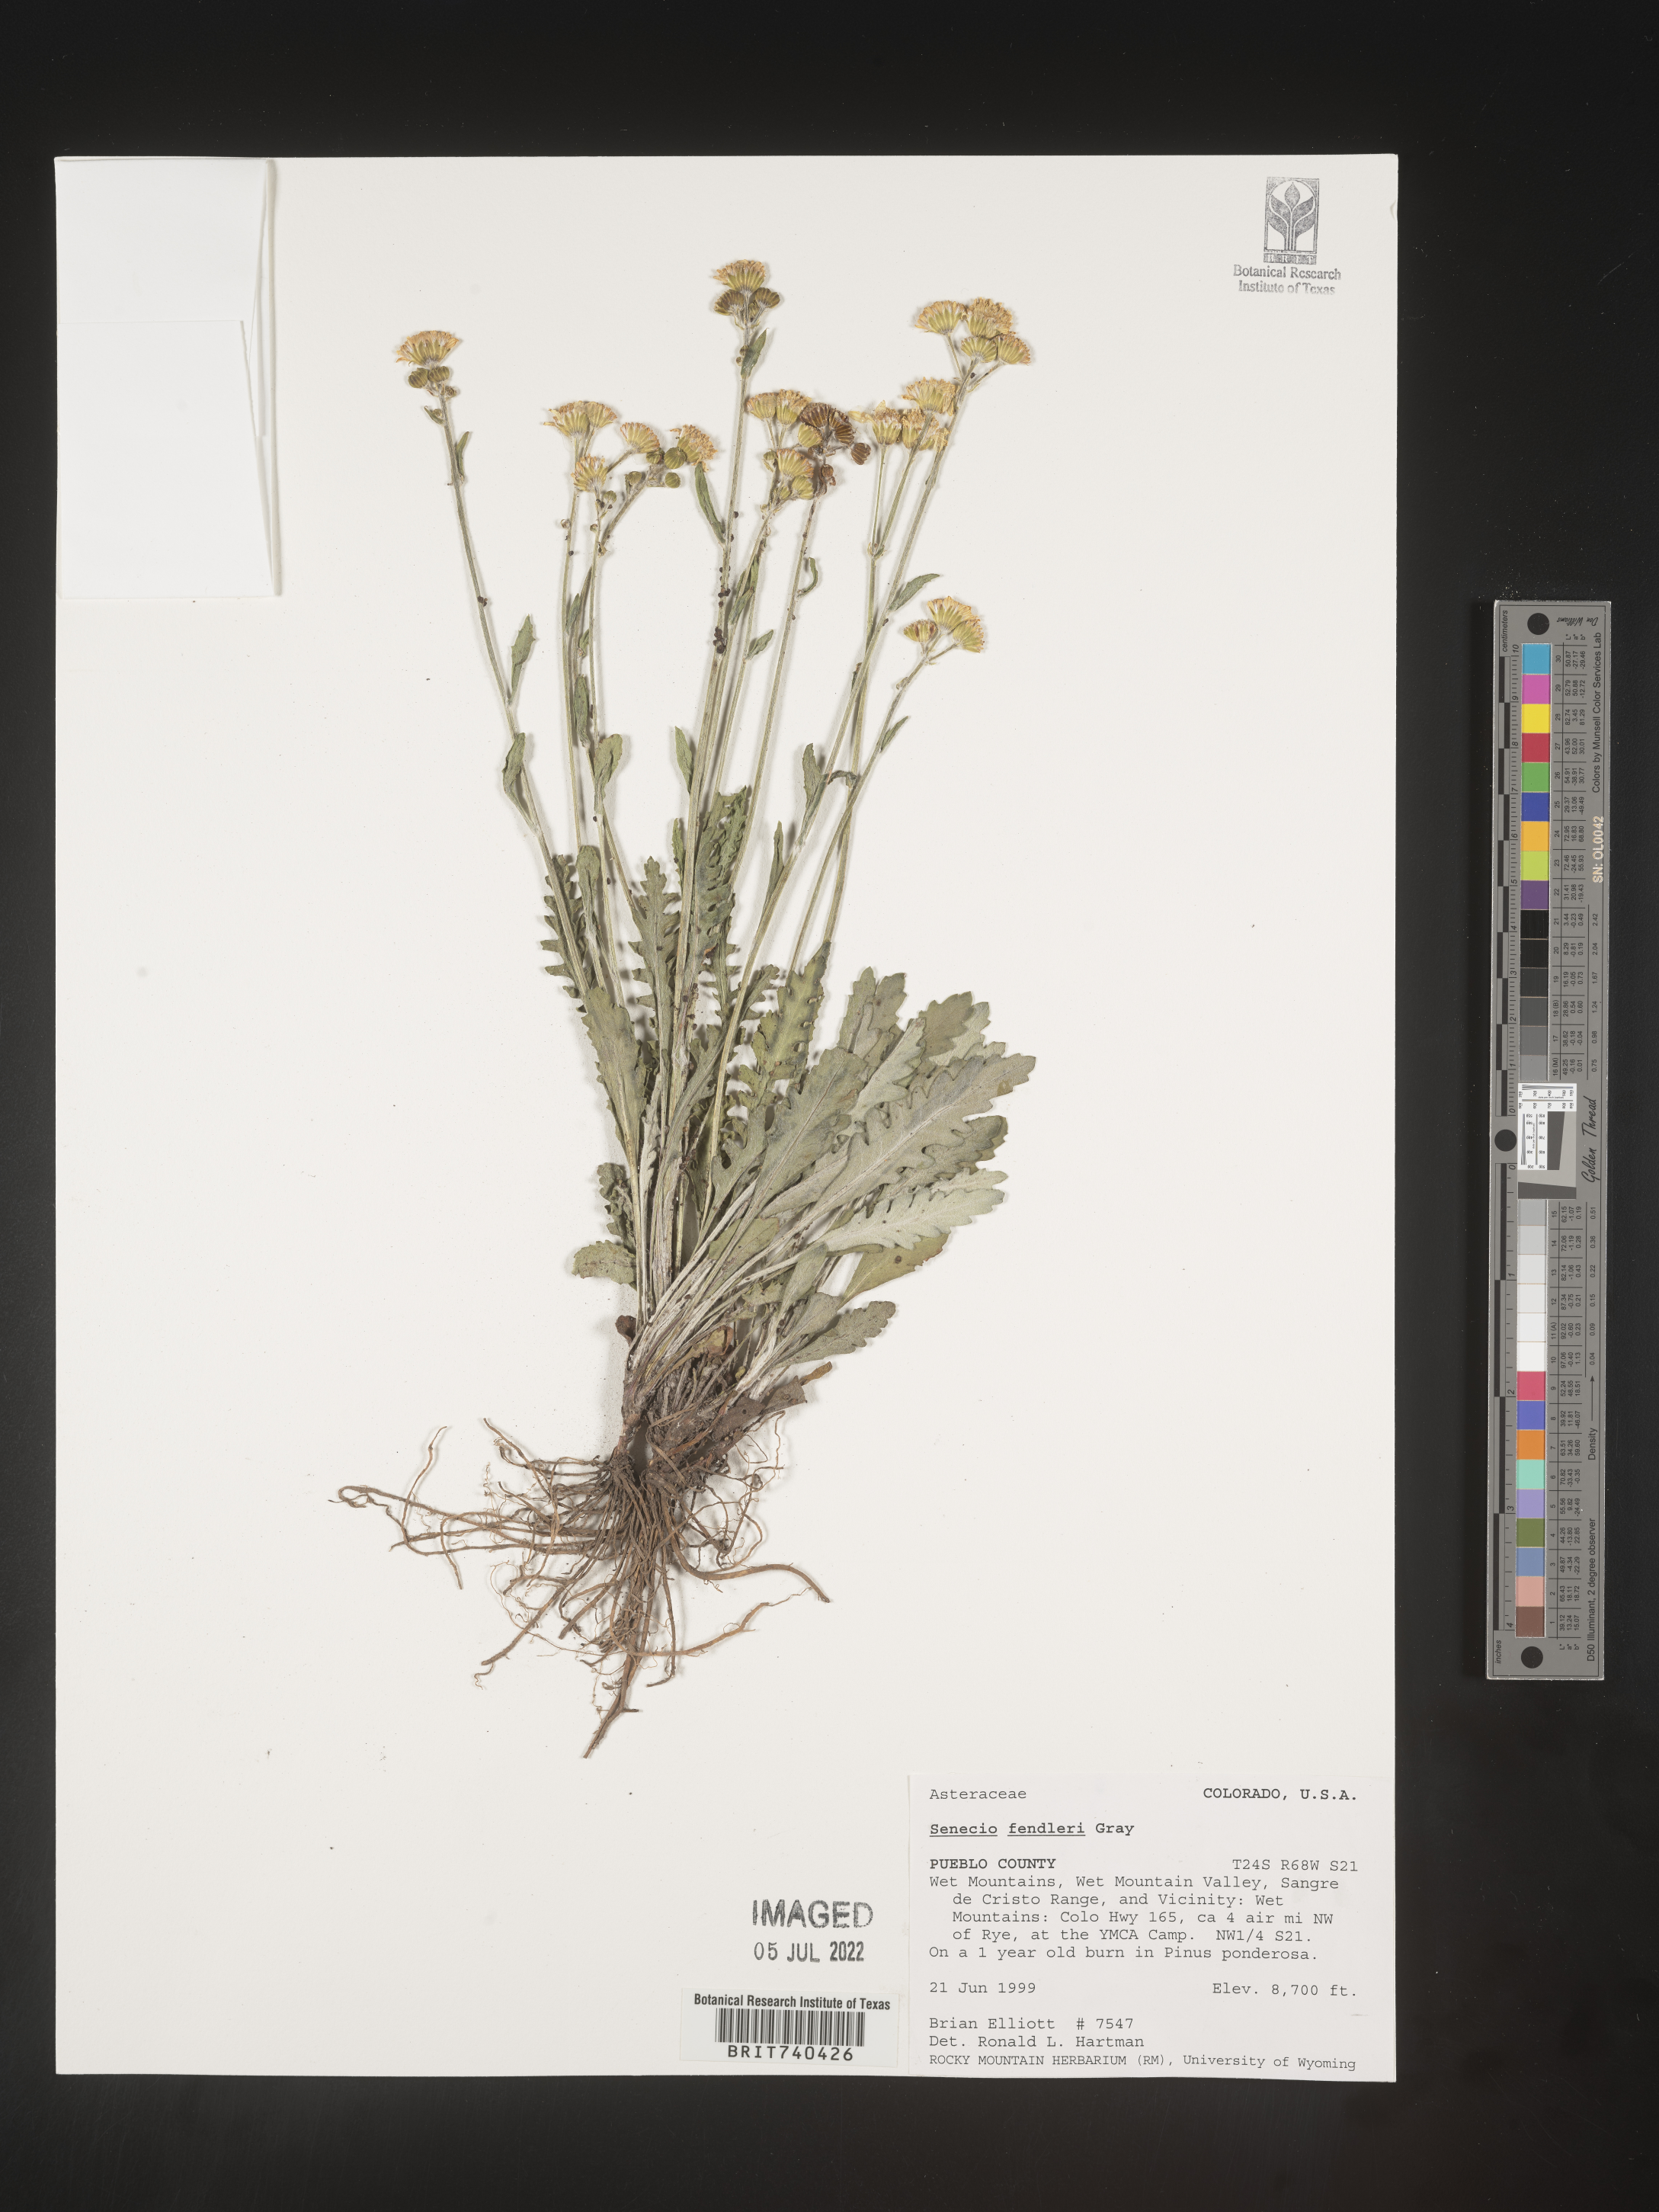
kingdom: Plantae
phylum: Tracheophyta
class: Magnoliopsida
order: Asterales
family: Asteraceae
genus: Packera
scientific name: Packera fendleri
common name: Notch-leaf butterweed
